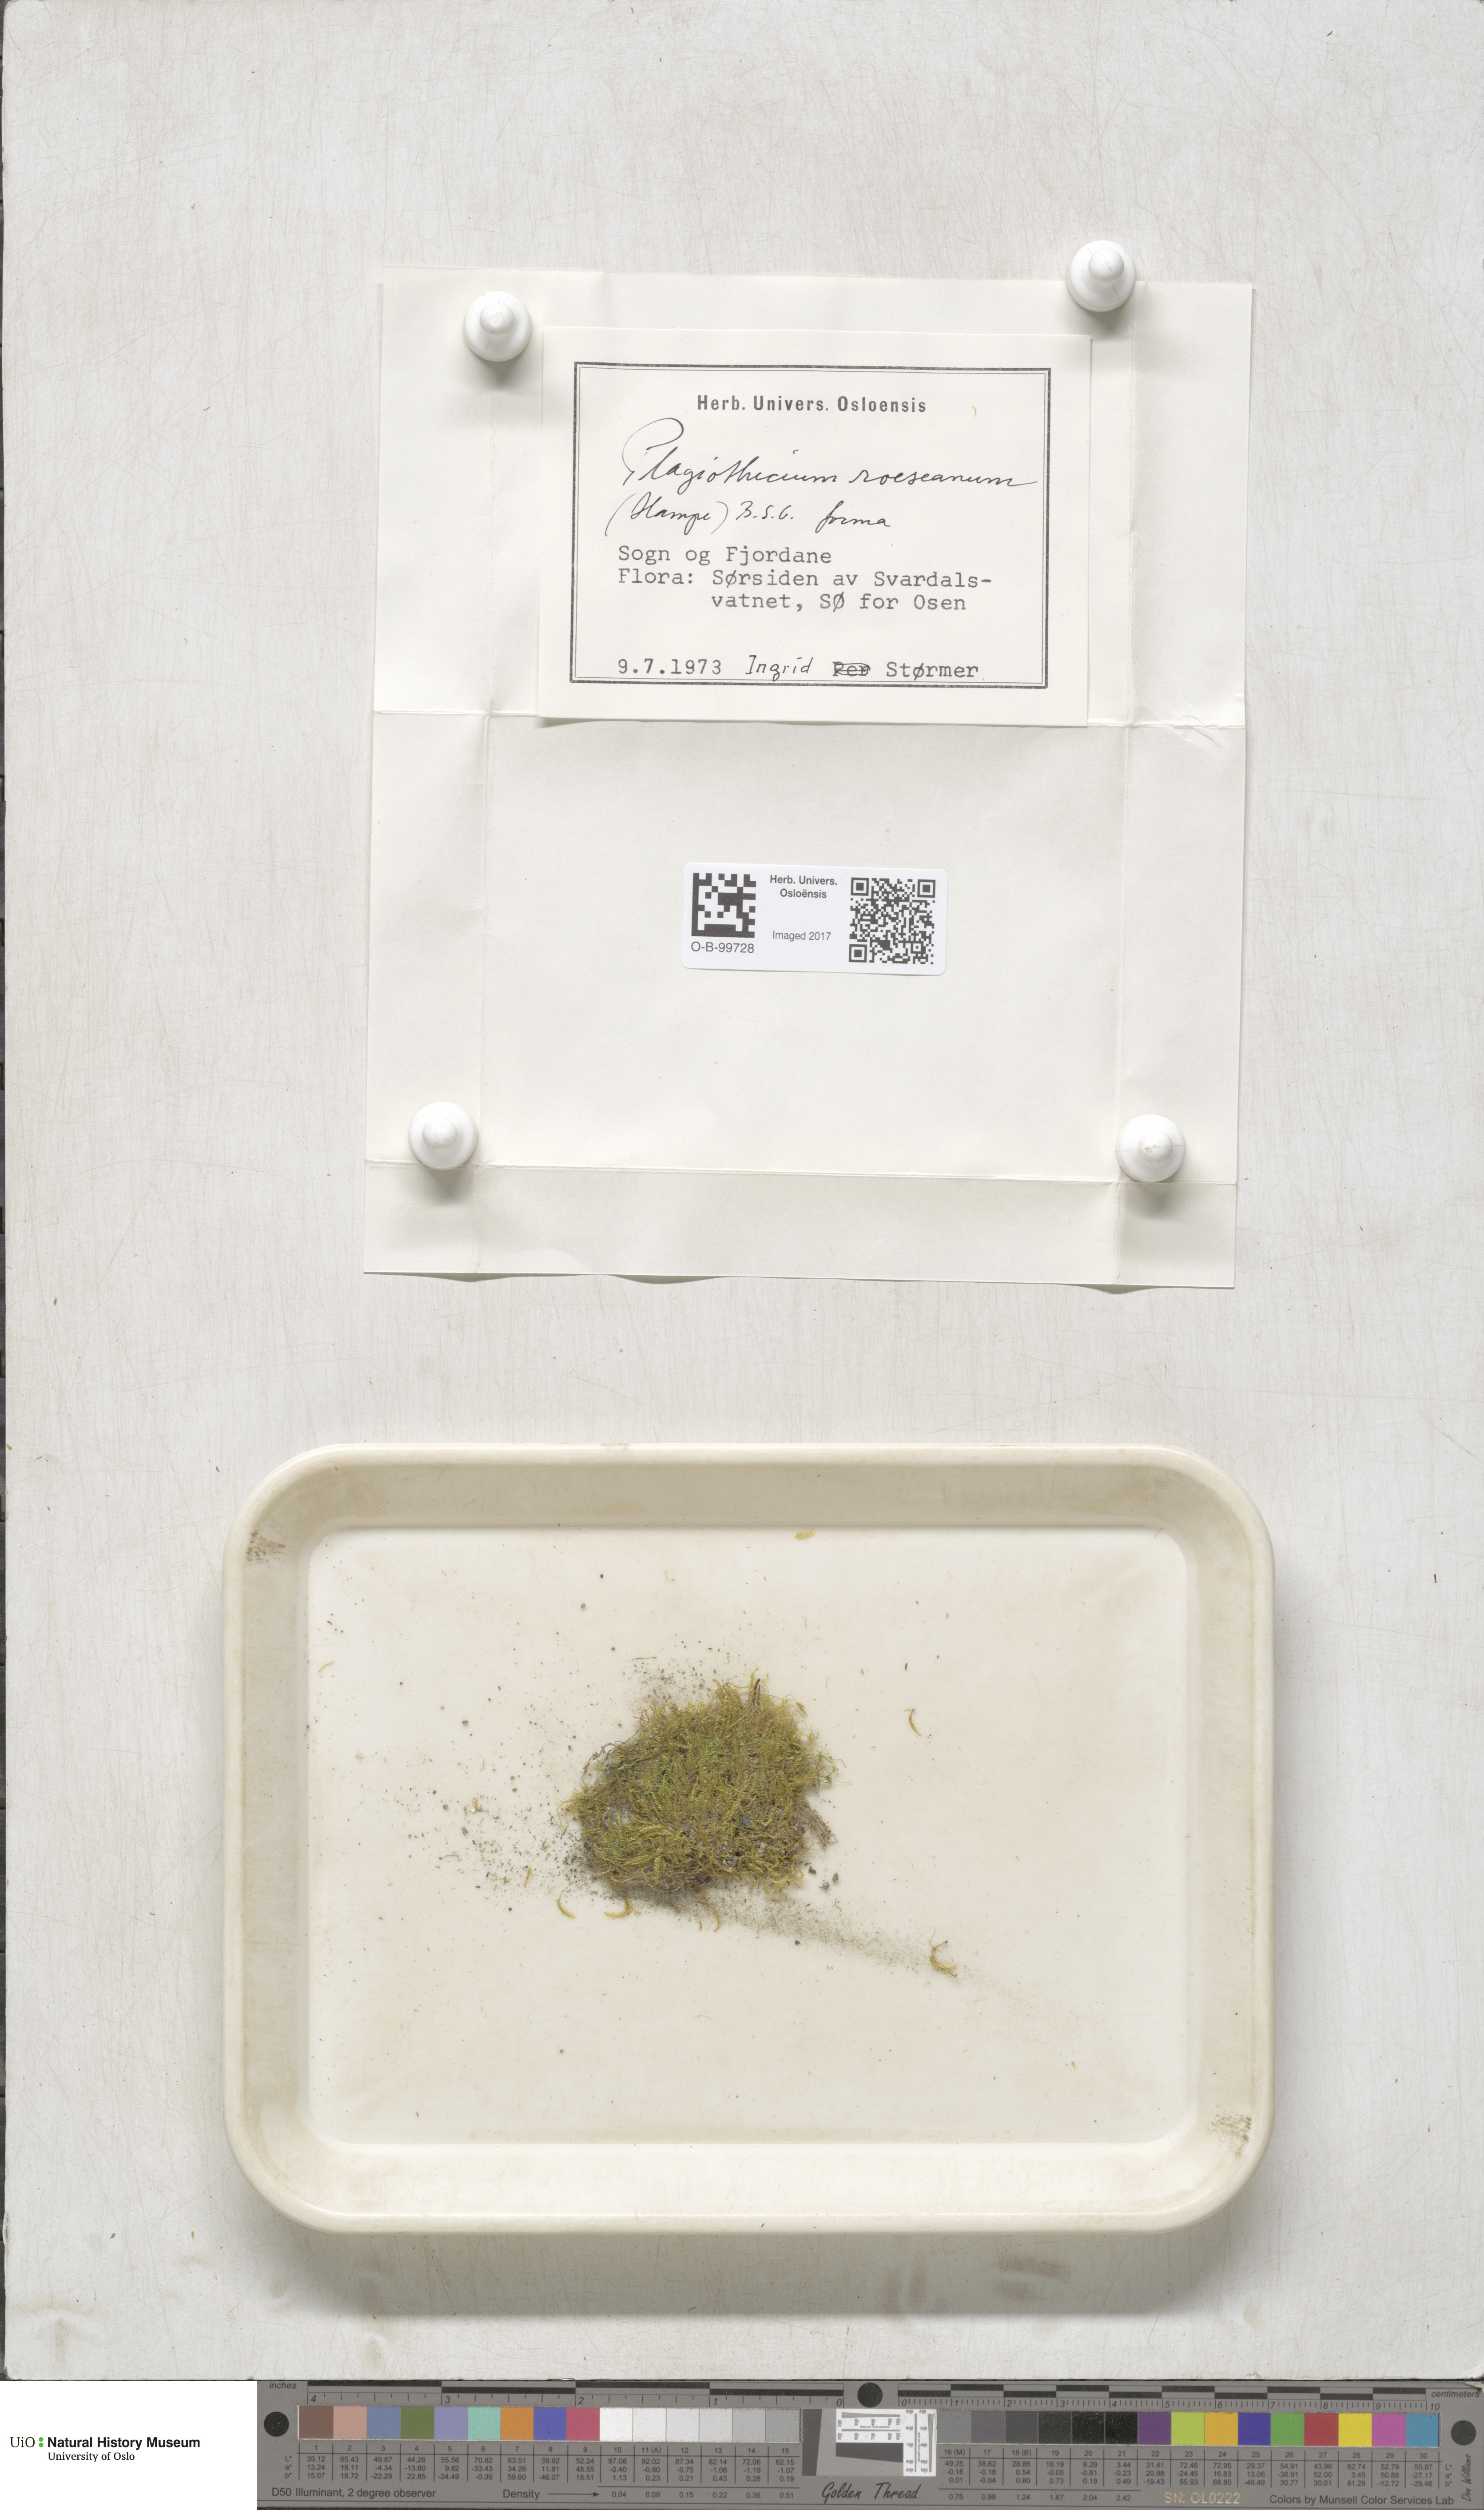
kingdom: Plantae
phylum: Bryophyta
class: Bryopsida
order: Bartramiales
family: Bartramiaceae
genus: Plagiopus
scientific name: Plagiopus oederianus
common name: Oeder's apple moss
